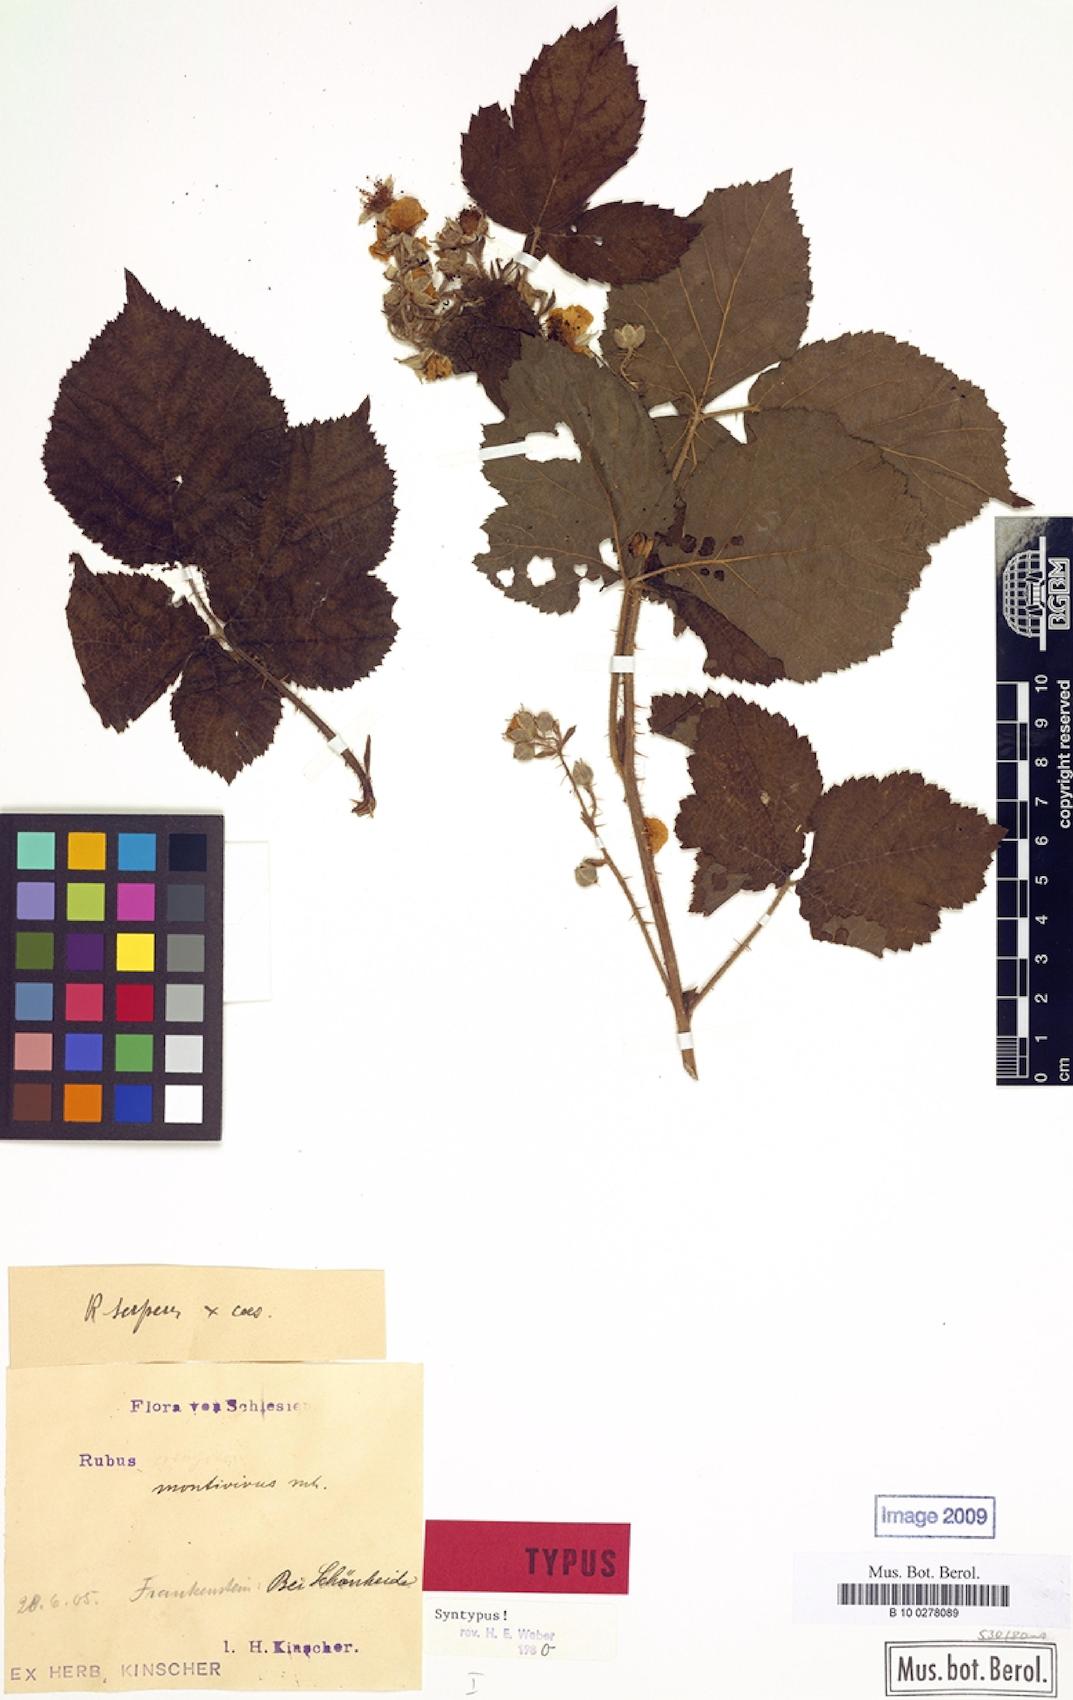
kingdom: Plantae
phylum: Tracheophyta
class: Magnoliopsida
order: Rosales
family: Rosaceae
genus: Rubus
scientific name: Rubus dollnensis
